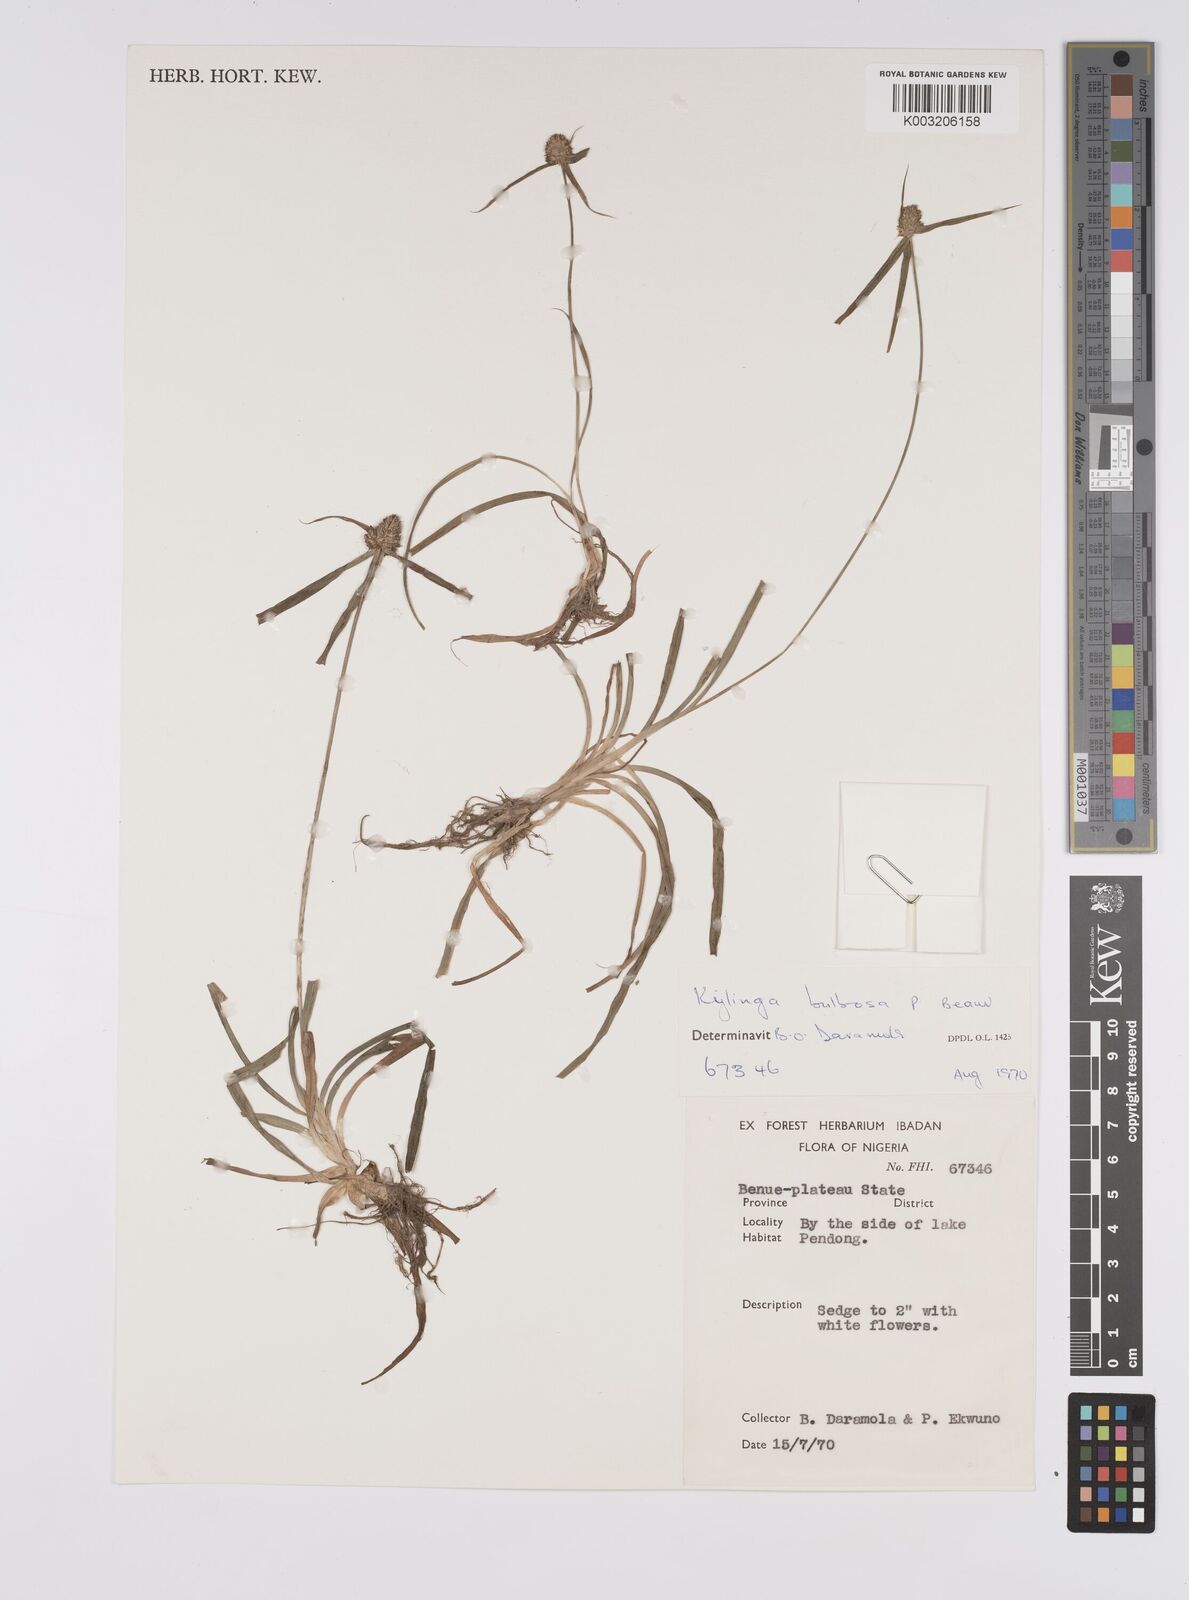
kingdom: Plantae
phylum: Tracheophyta
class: Liliopsida
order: Poales
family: Cyperaceae
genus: Cyperus
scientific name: Cyperus
